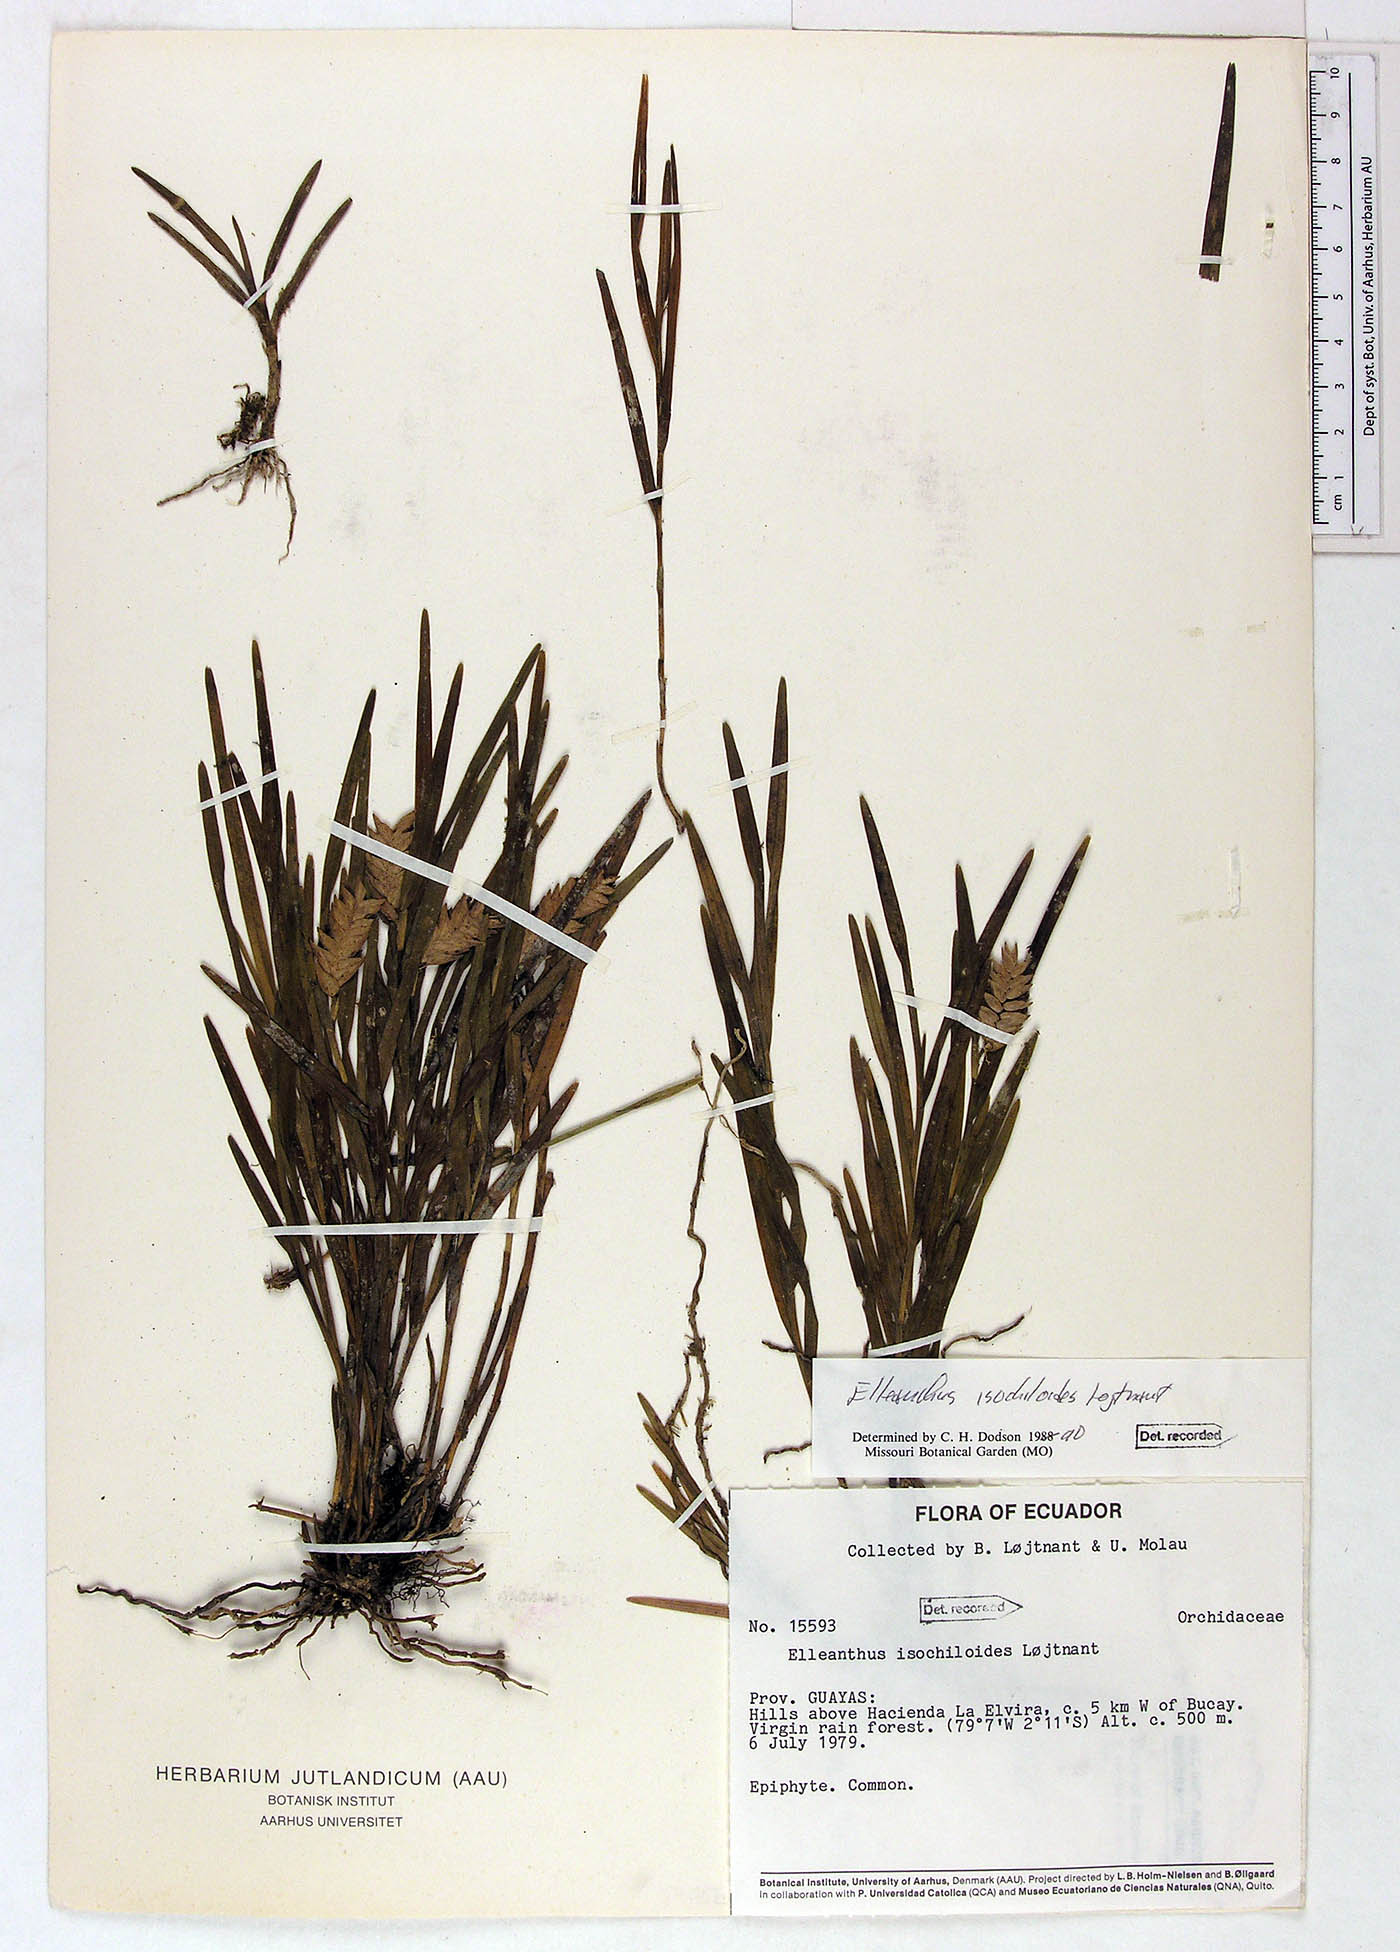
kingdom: Plantae
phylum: Tracheophyta
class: Liliopsida
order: Asparagales
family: Orchidaceae
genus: Elleanthus
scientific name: Elleanthus isochiloides
